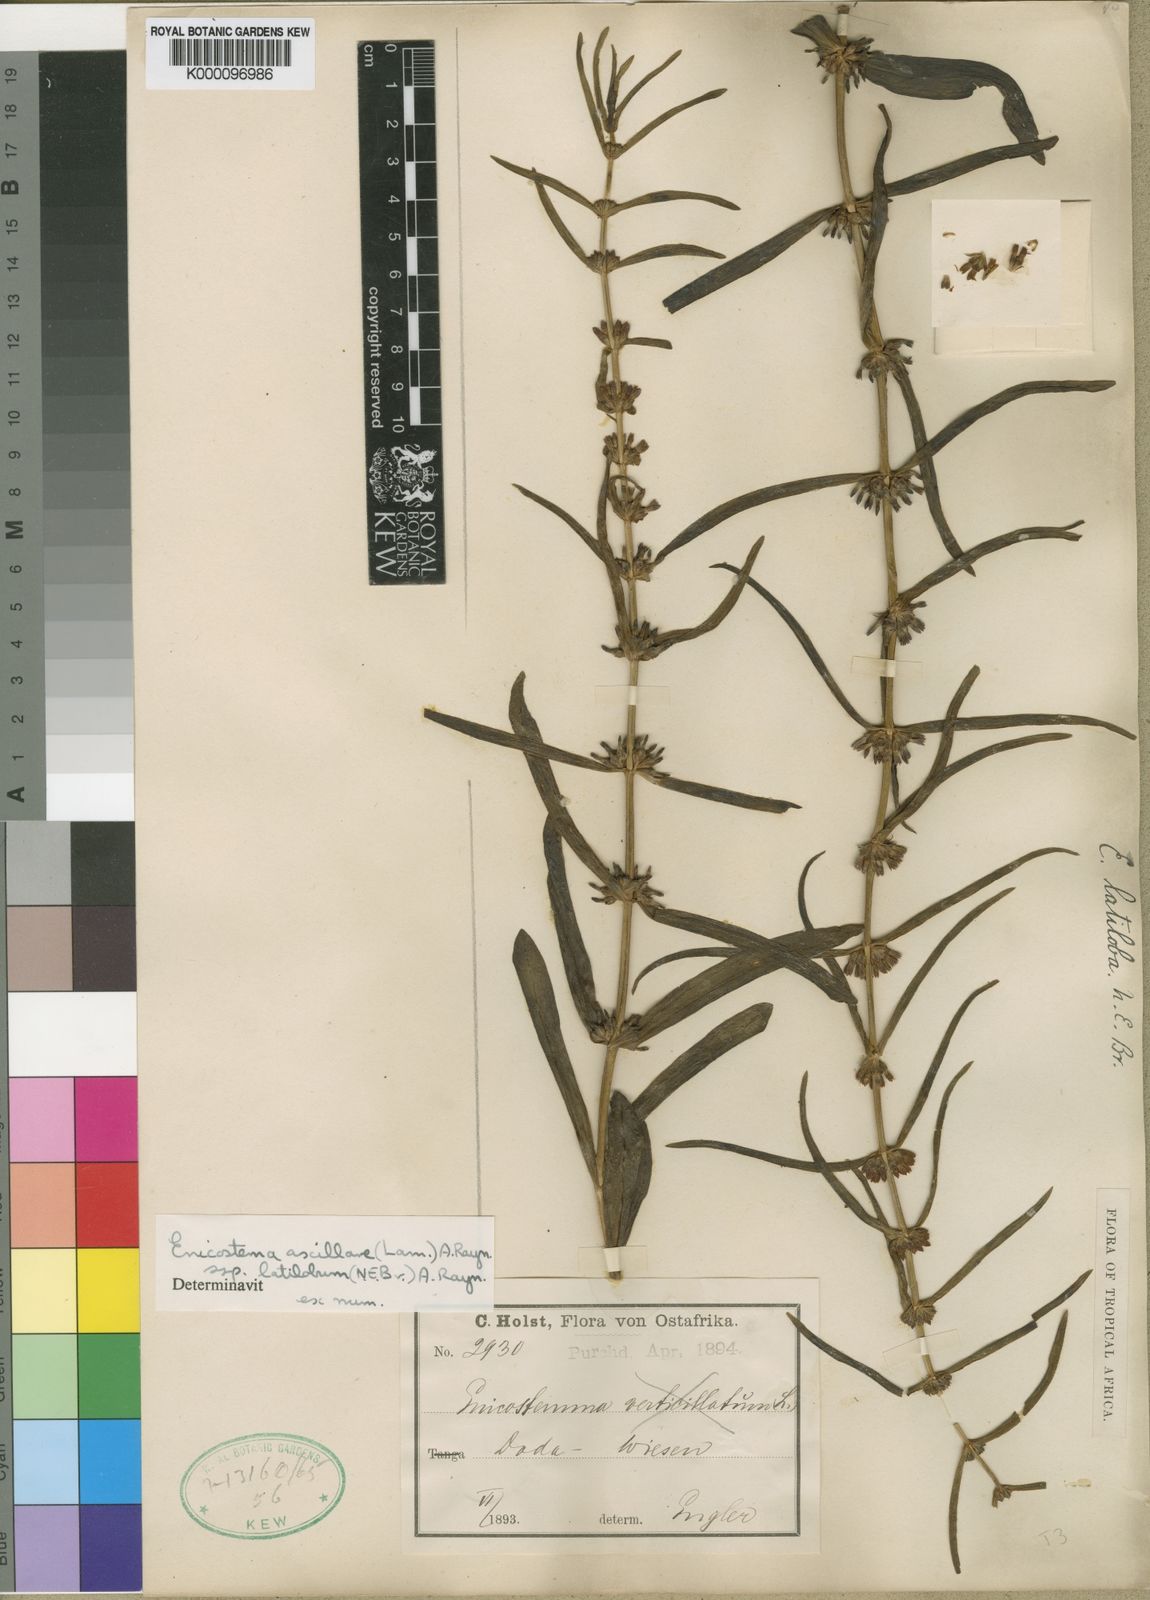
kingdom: Plantae
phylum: Tracheophyta
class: Magnoliopsida
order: Gentianales
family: Gentianaceae
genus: Enicostema
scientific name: Enicostema axillare
